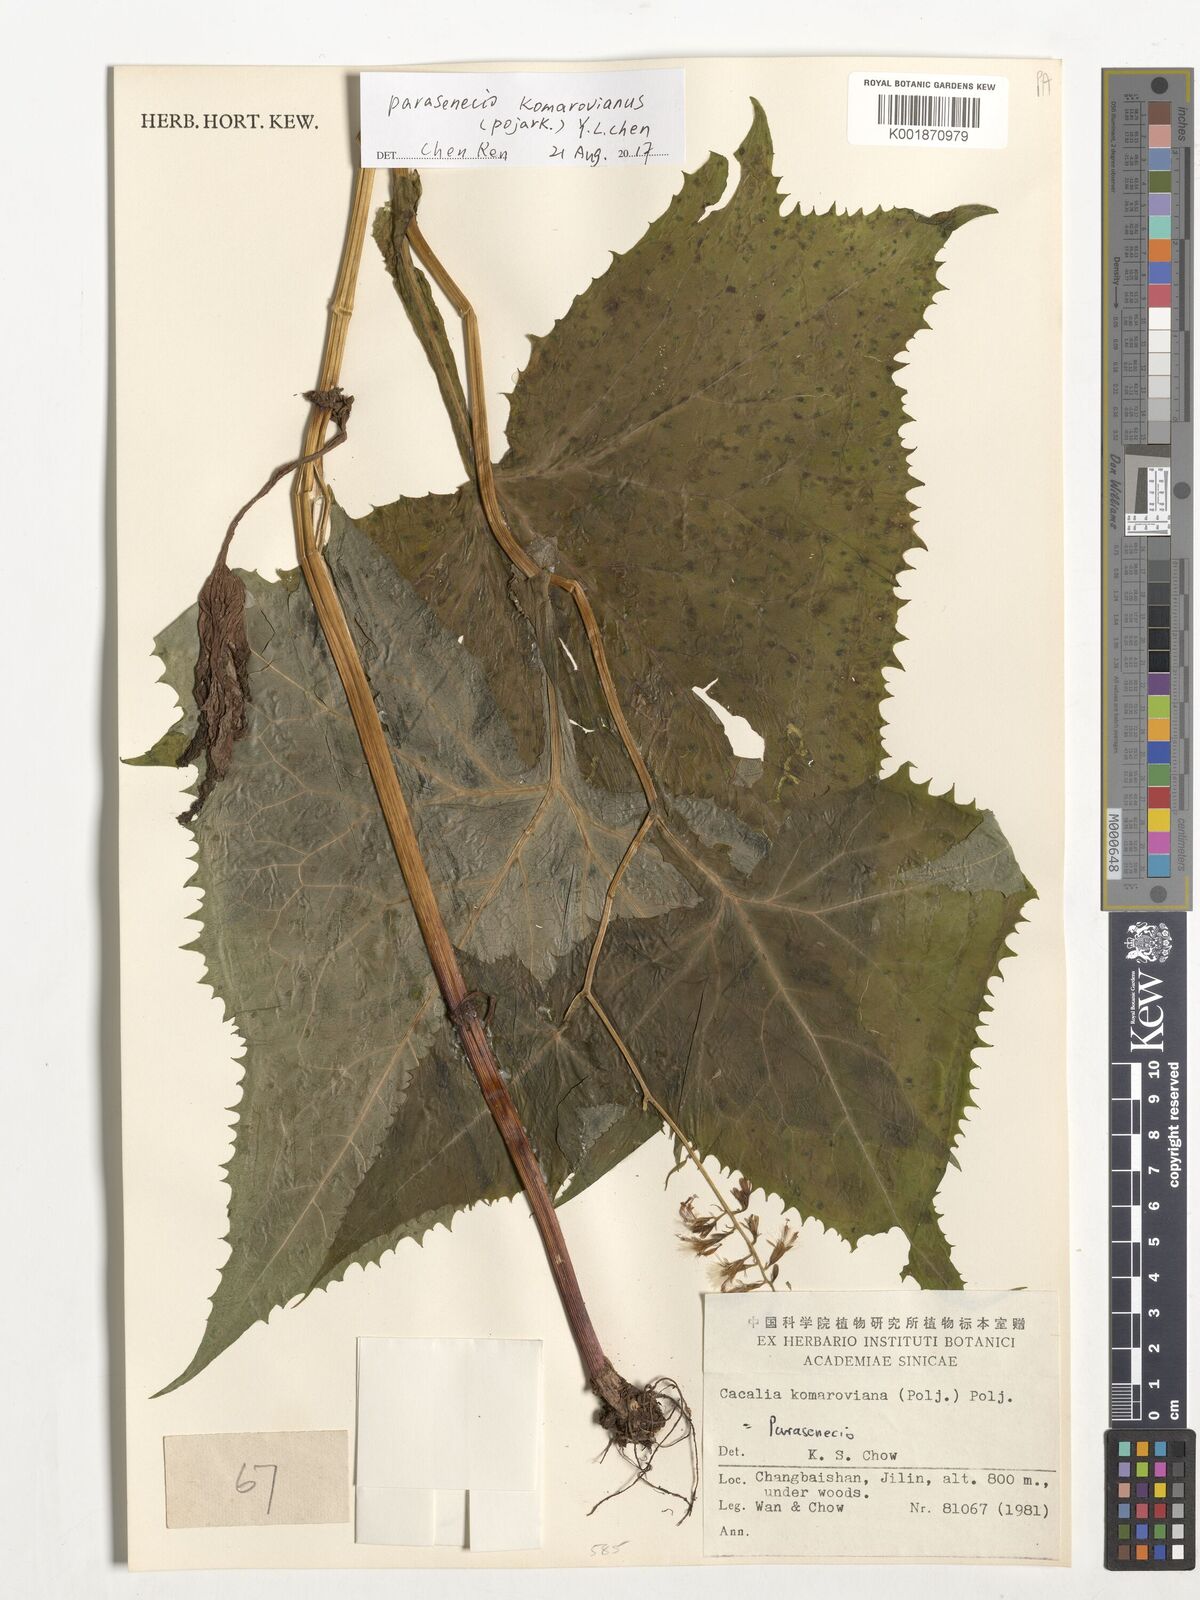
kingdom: Plantae
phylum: Tracheophyta
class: Magnoliopsida
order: Asterales
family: Asteraceae
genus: Parasenecio
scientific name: Parasenecio komarovianus
